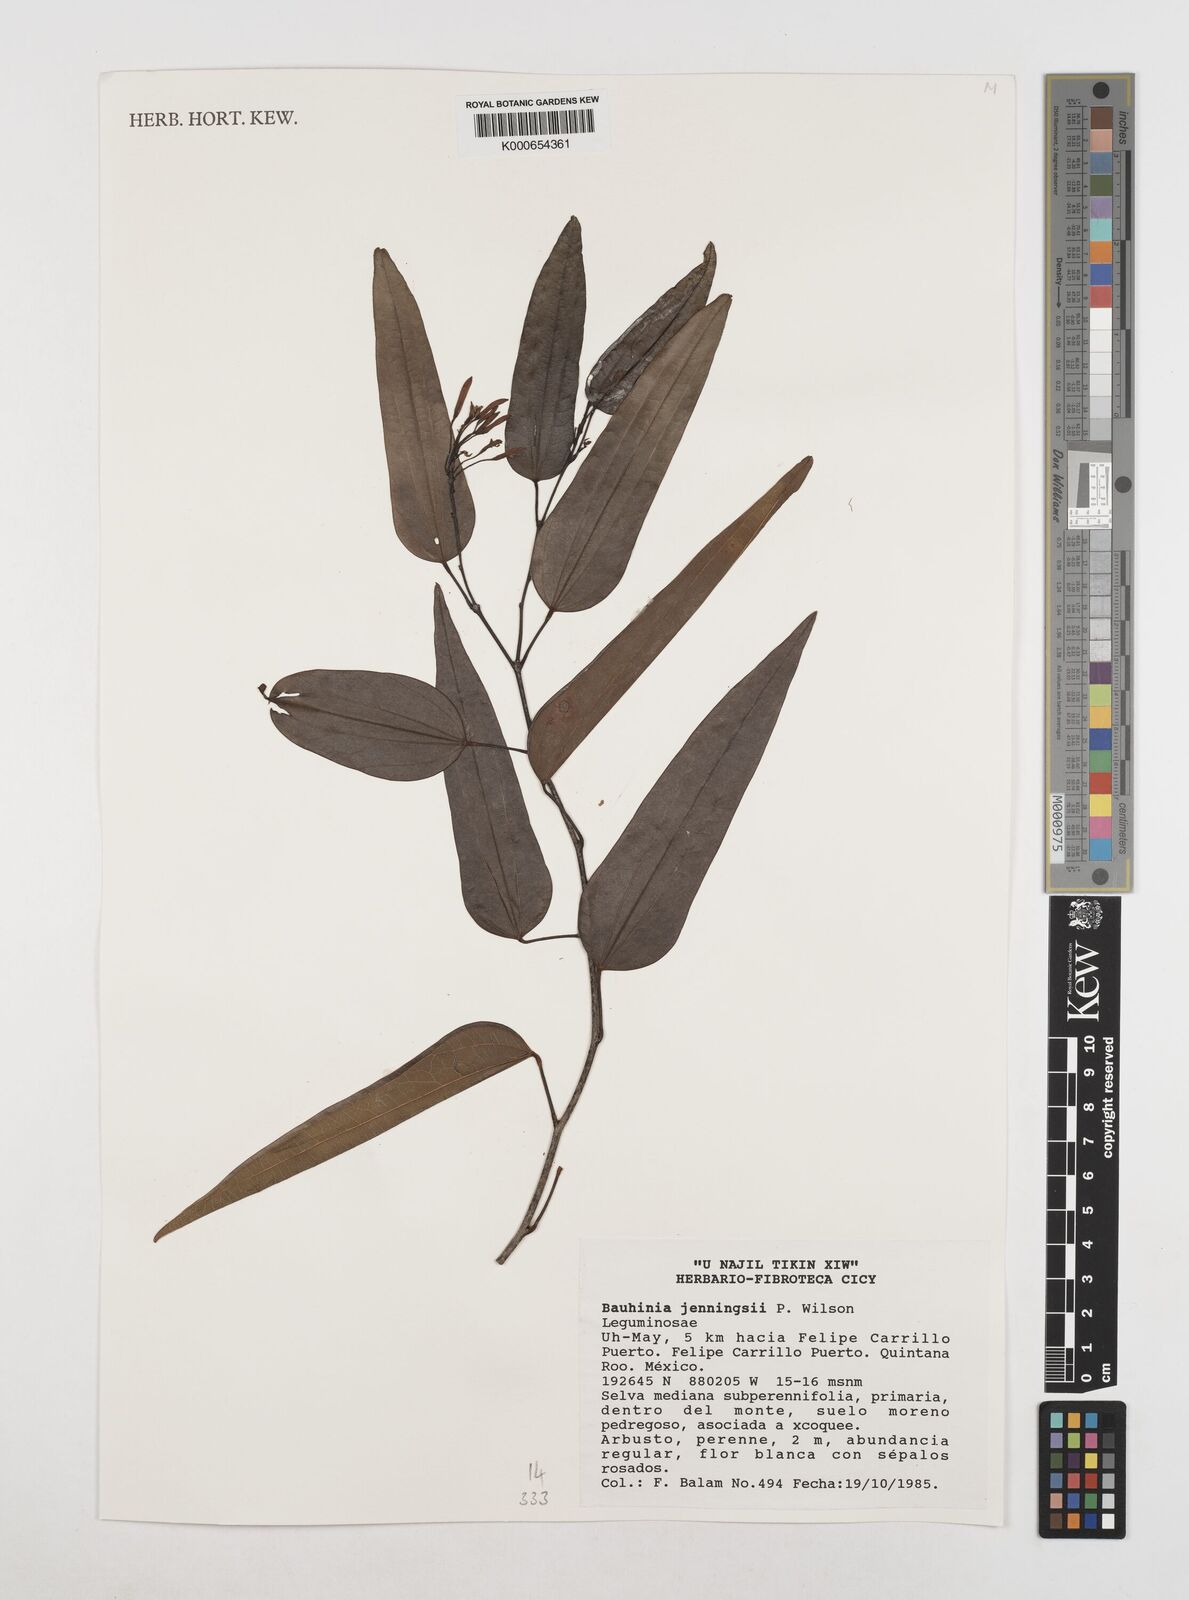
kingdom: Plantae
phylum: Tracheophyta
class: Magnoliopsida
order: Fabales
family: Fabaceae
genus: Bauhinia
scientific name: Bauhinia jenningsii
